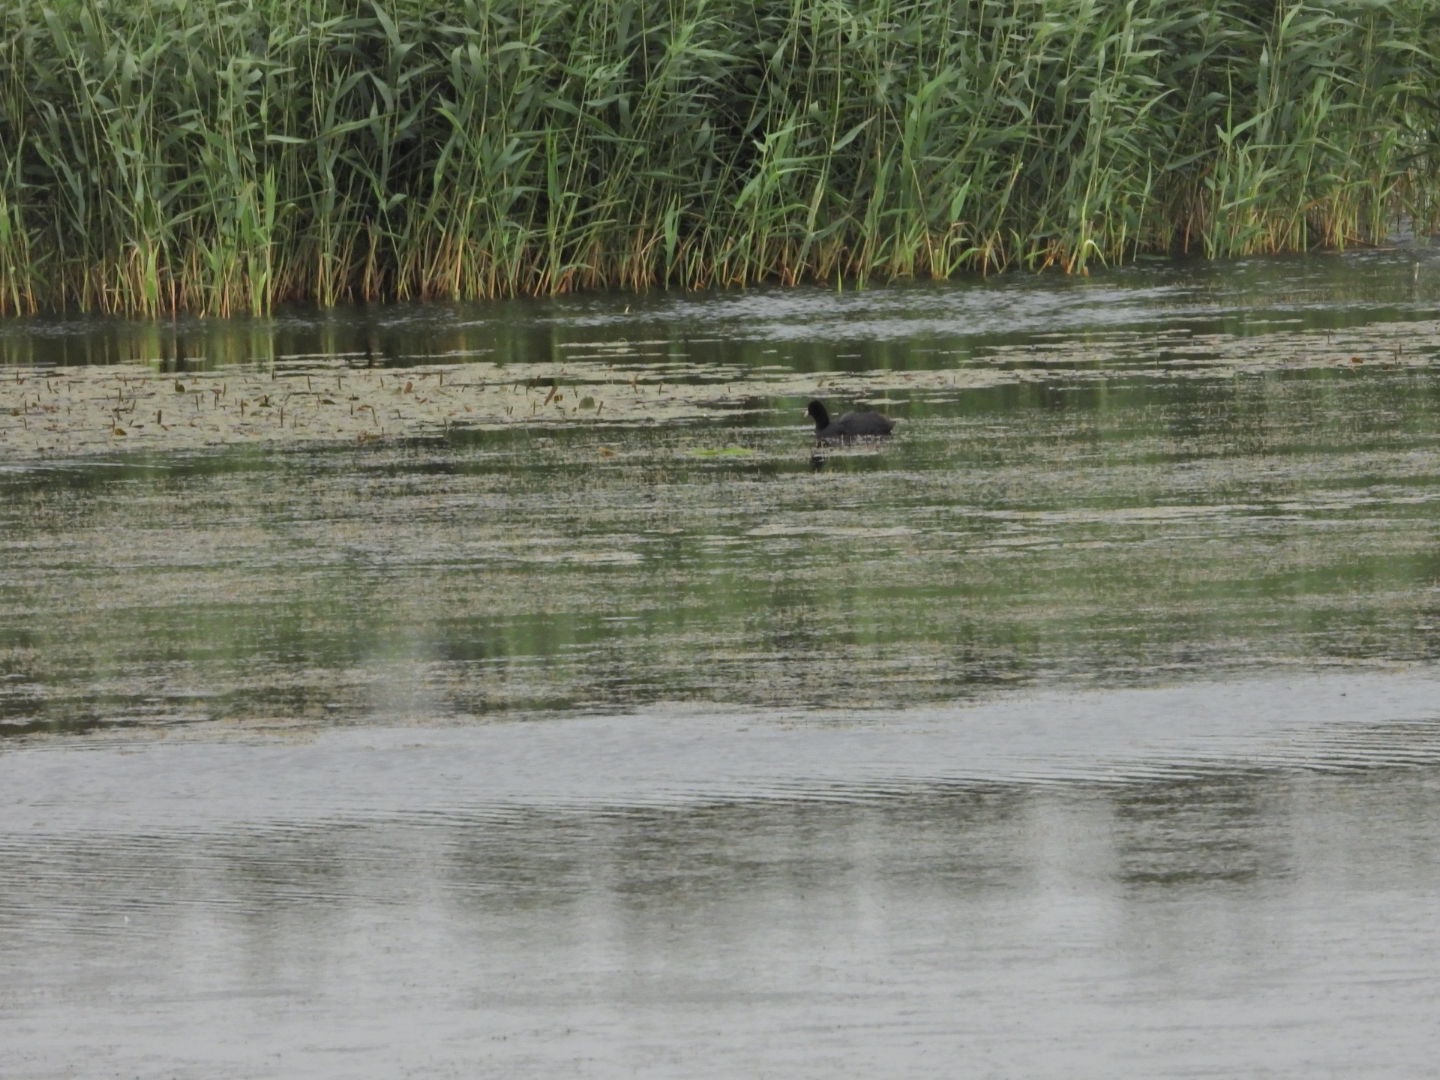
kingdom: Animalia
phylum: Chordata
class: Aves
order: Gruiformes
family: Rallidae
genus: Fulica
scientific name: Fulica atra
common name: Blishøne
